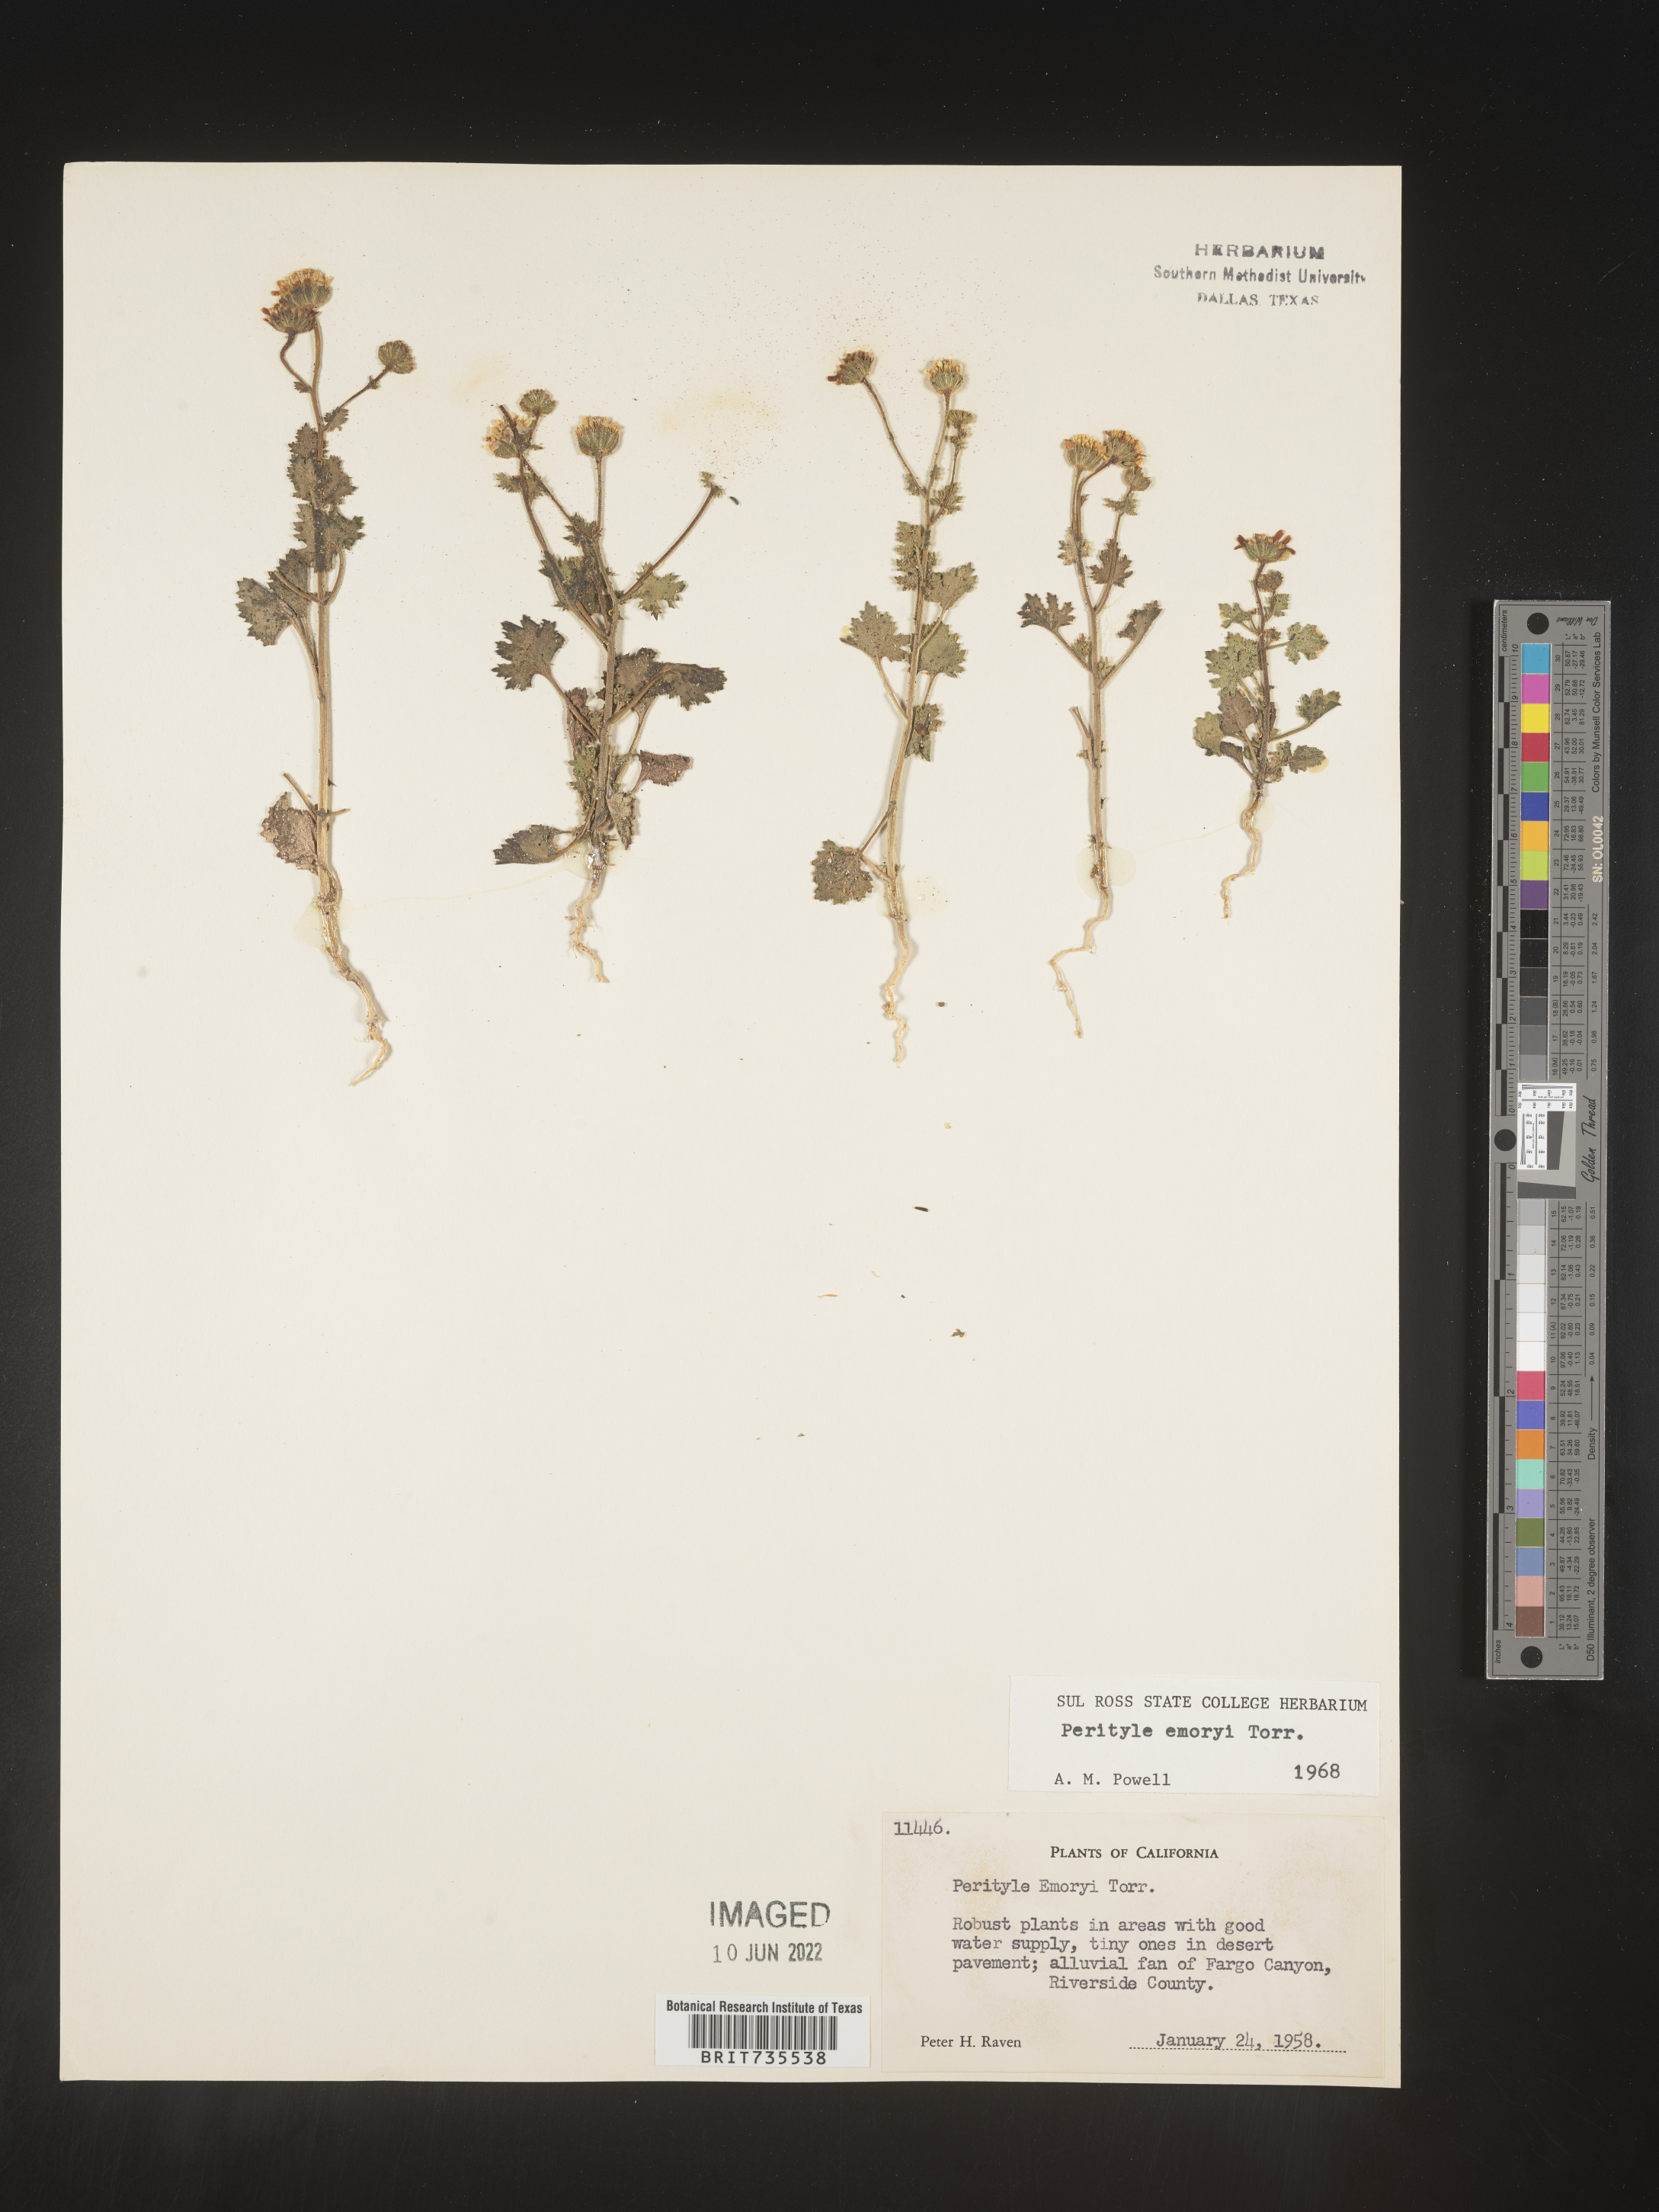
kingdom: Plantae
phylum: Tracheophyta
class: Magnoliopsida
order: Asterales
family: Asteraceae
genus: Perityle
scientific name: Perityle
